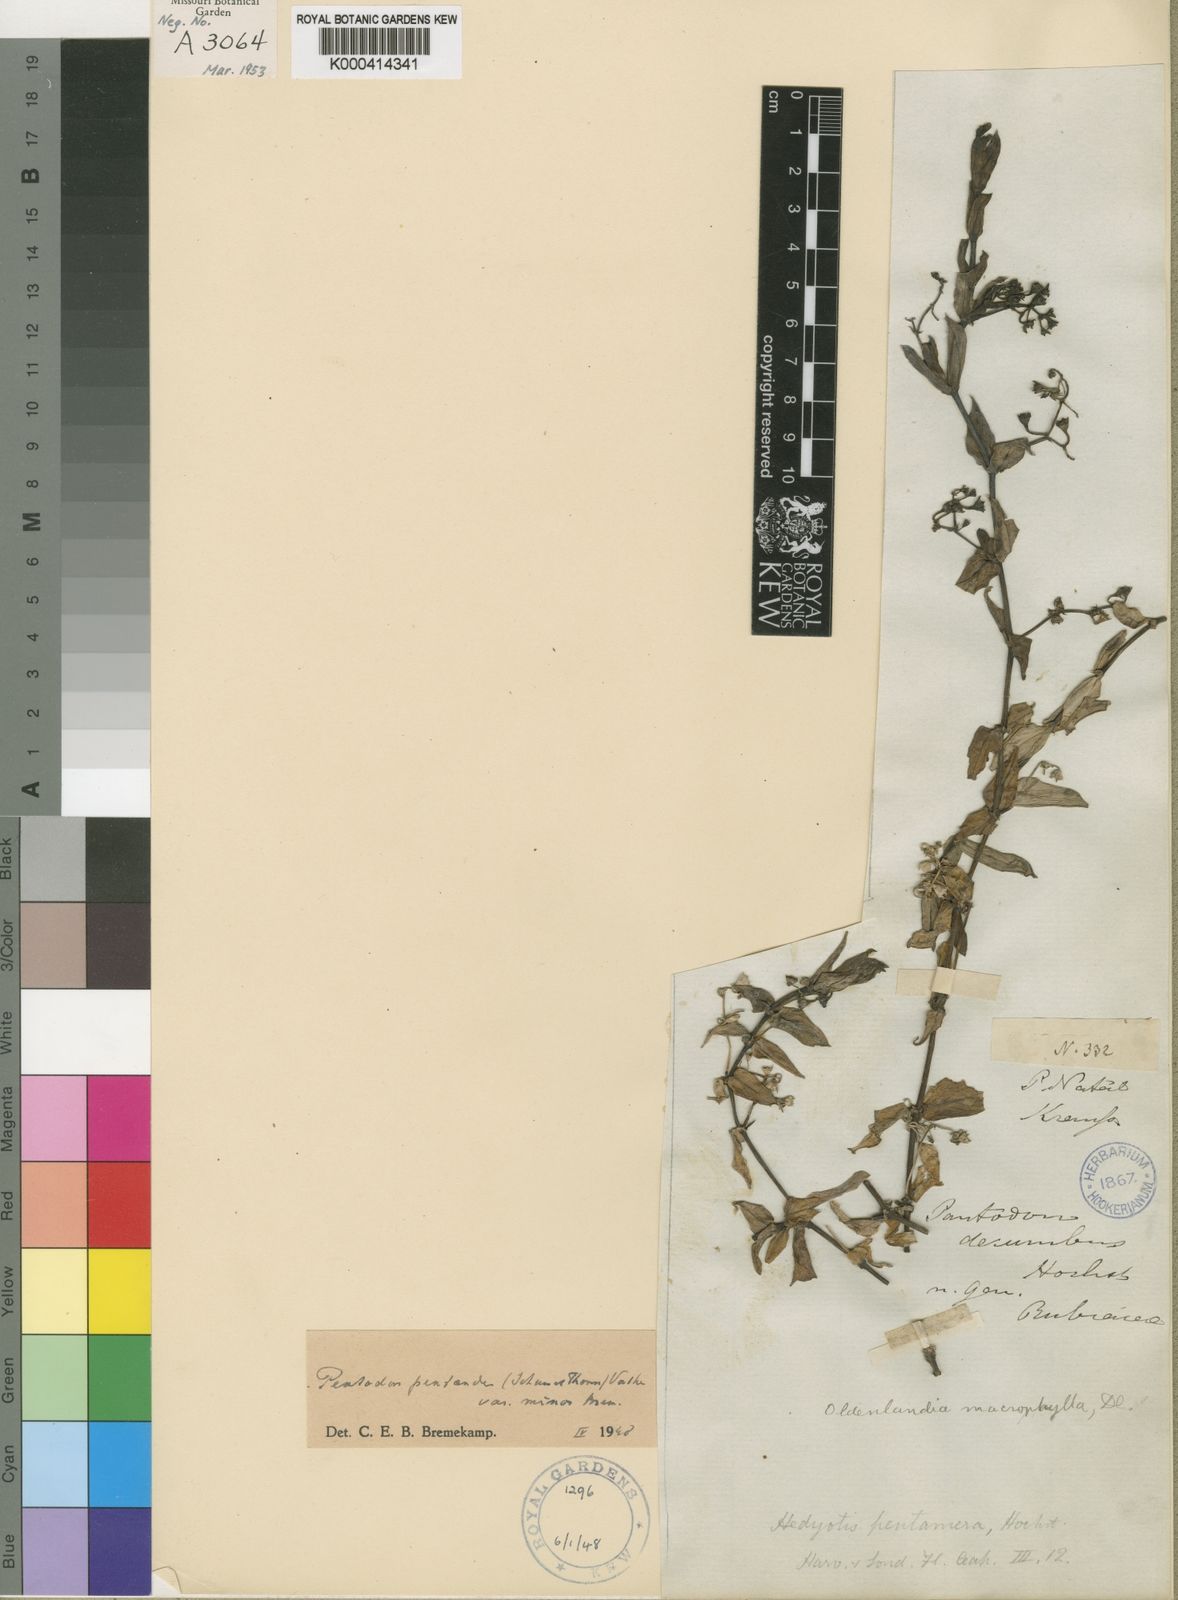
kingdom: Plantae
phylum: Tracheophyta
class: Magnoliopsida
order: Gentianales
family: Rubiaceae
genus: Pentodon
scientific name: Pentodon pentandrus
